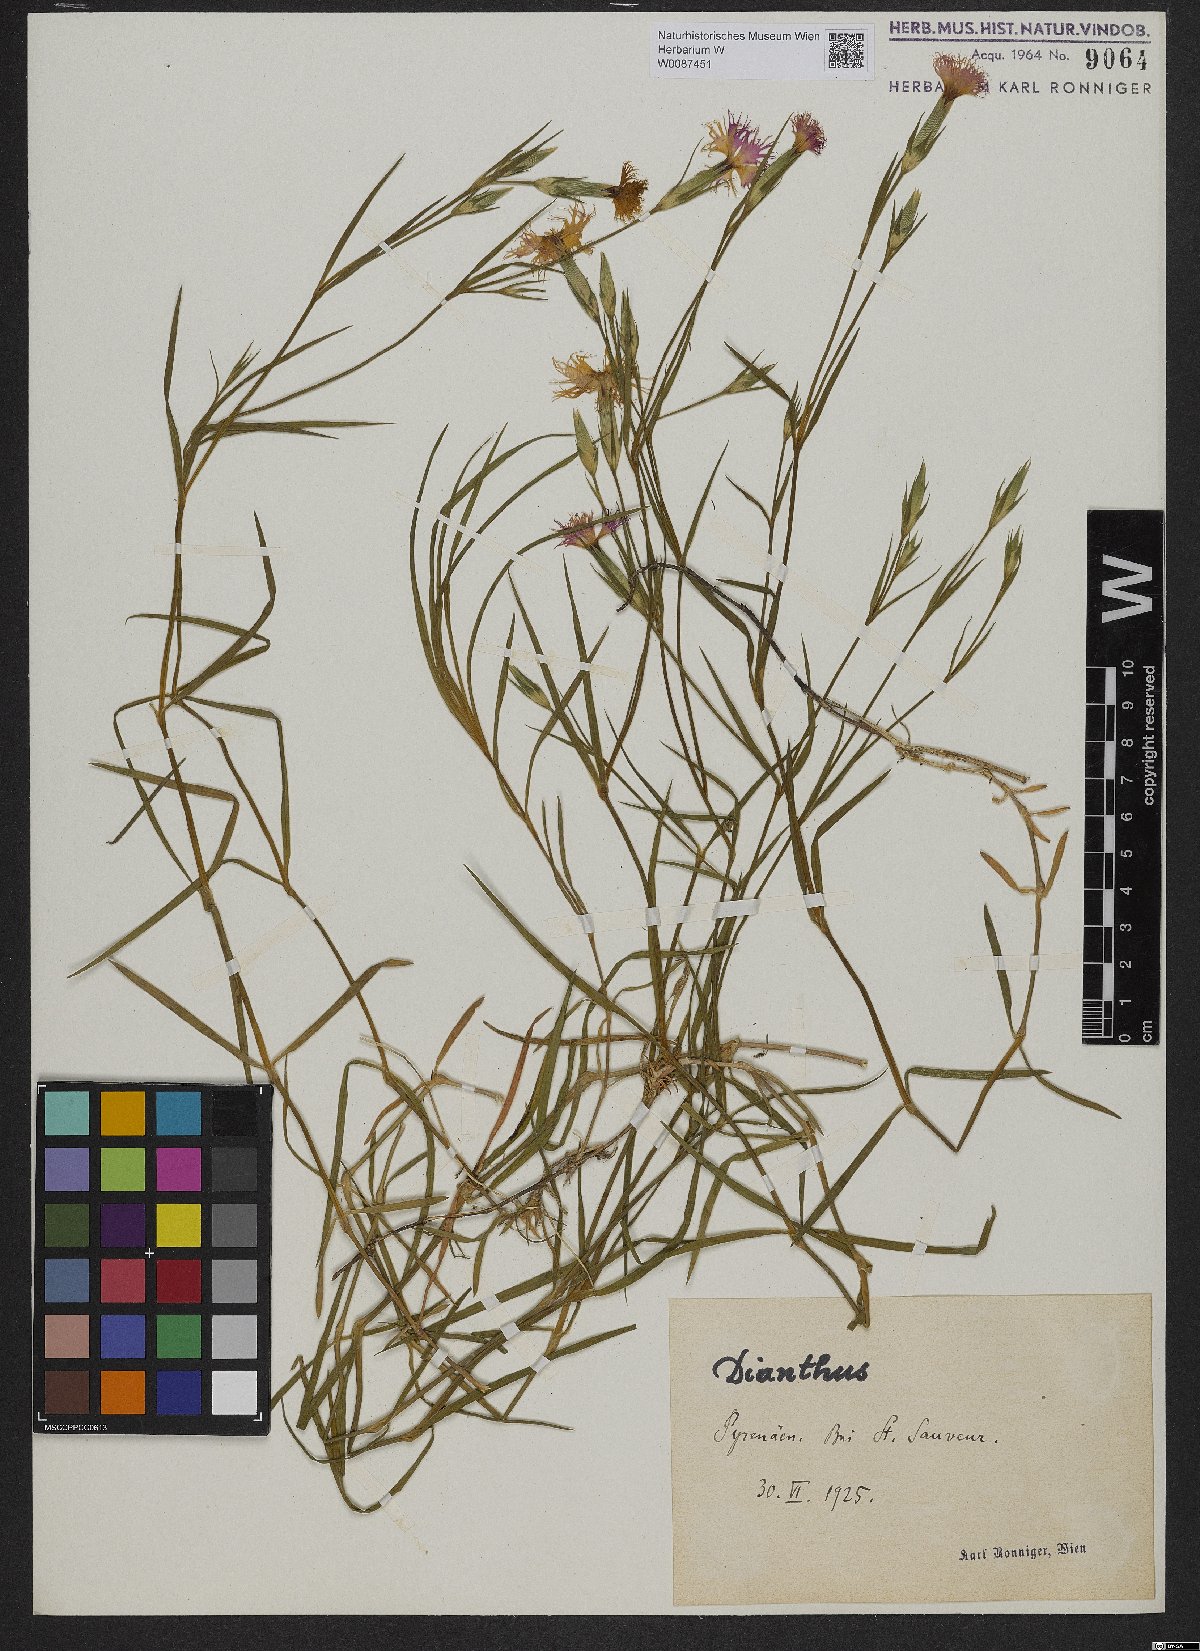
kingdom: Plantae
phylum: Tracheophyta
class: Magnoliopsida
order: Caryophyllales
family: Caryophyllaceae
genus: Dianthus
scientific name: Dianthus
